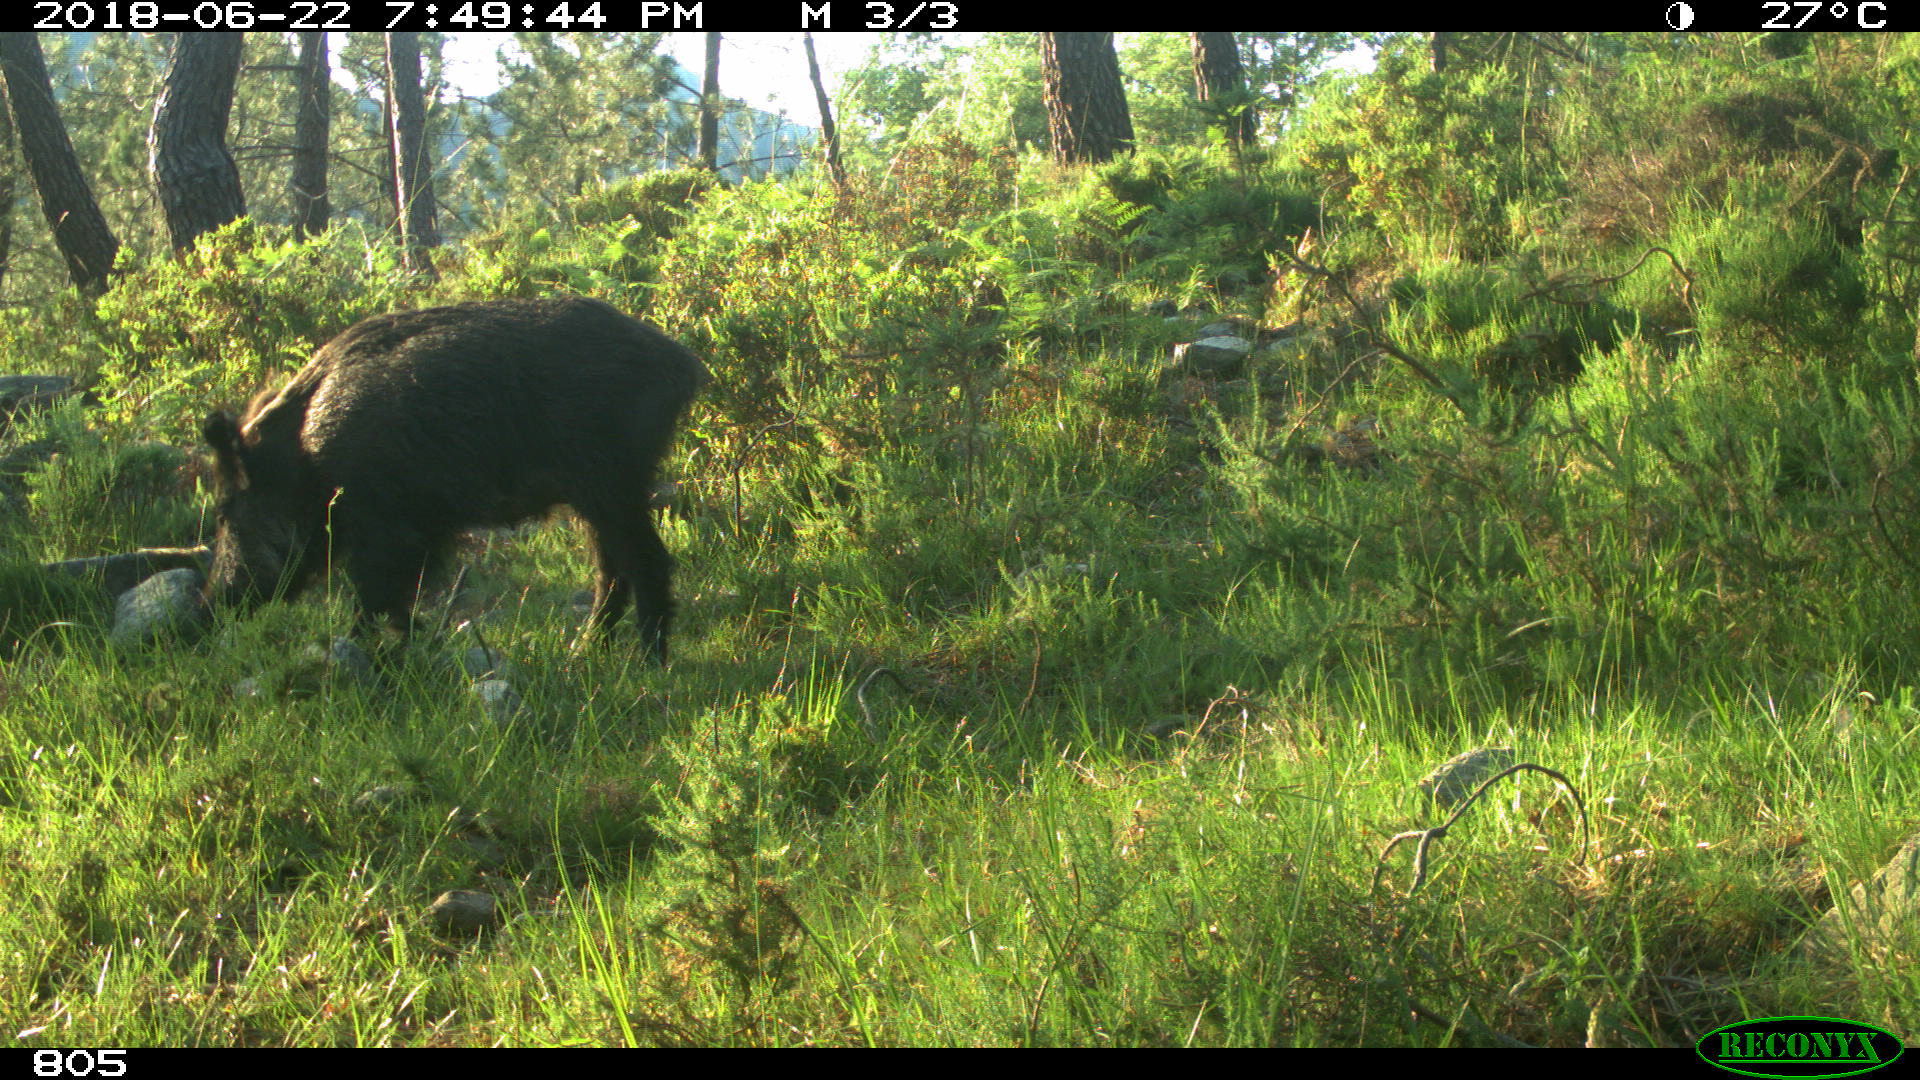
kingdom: Animalia
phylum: Chordata
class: Mammalia
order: Artiodactyla
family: Suidae
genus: Sus
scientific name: Sus scrofa
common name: Wild boar
